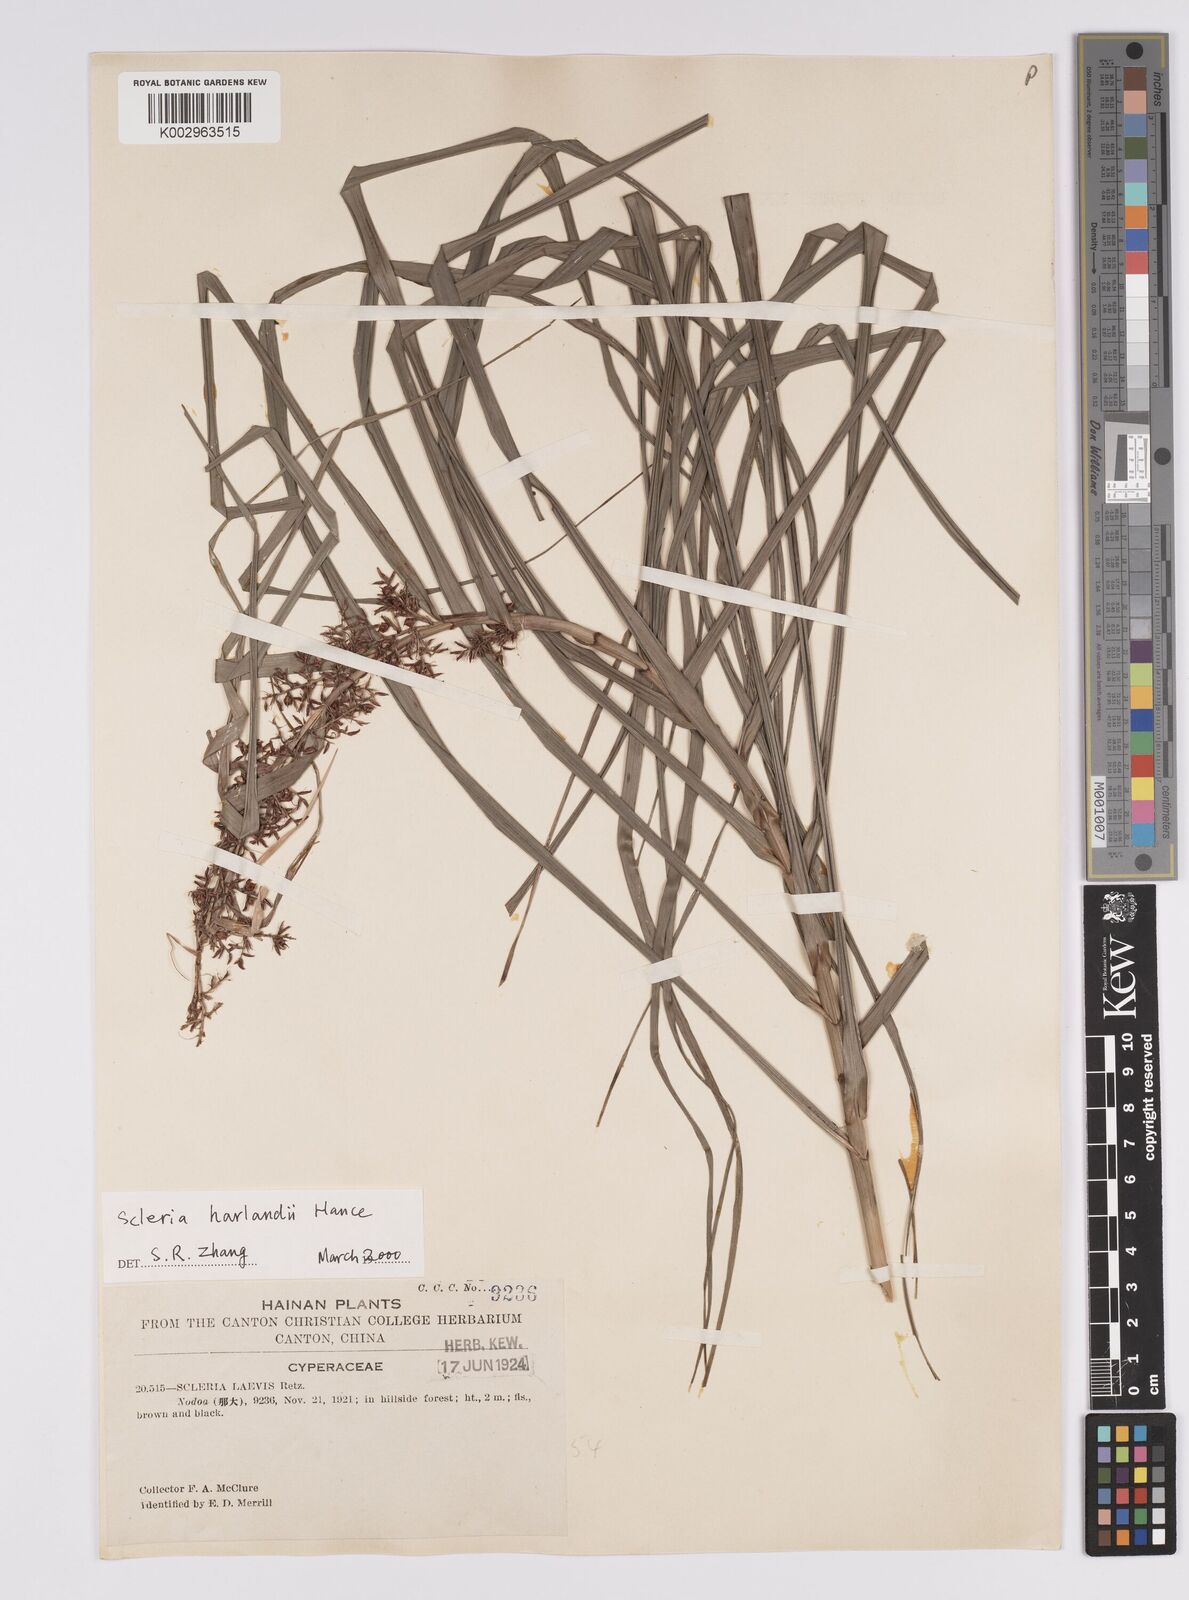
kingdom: Plantae
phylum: Tracheophyta
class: Liliopsida
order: Poales
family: Cyperaceae
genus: Scleria
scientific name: Scleria harlandii
